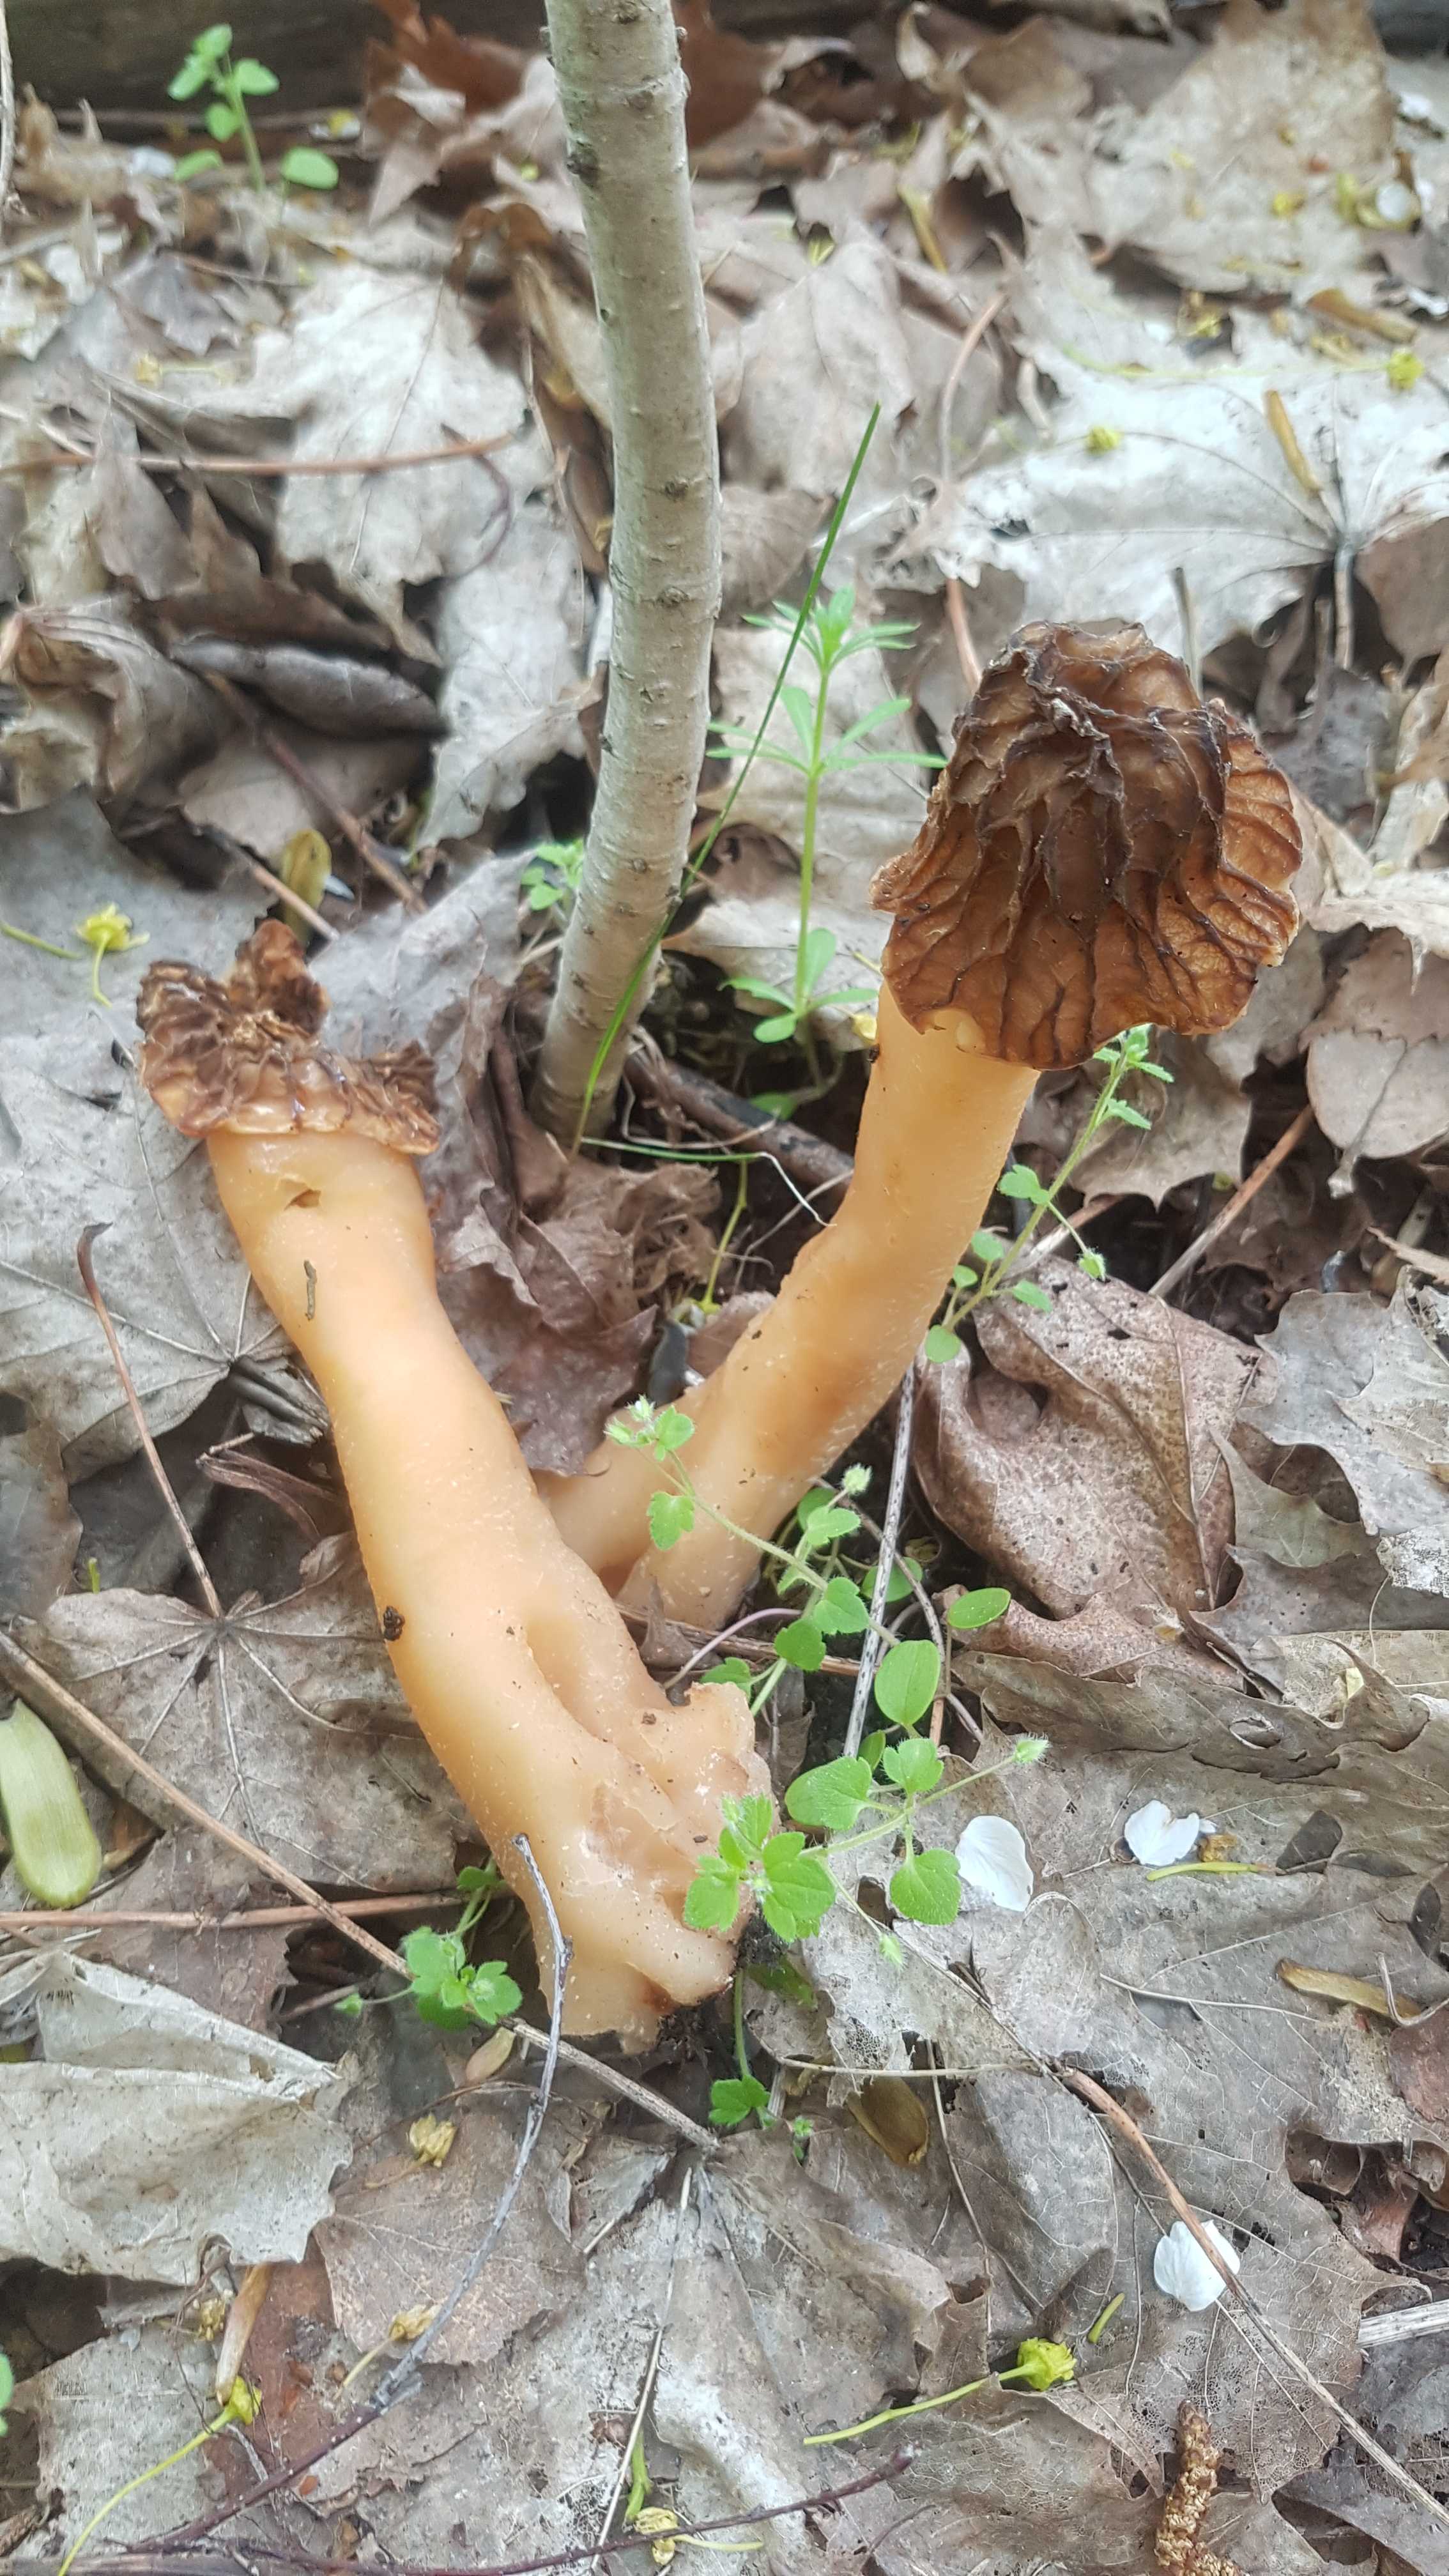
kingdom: Fungi
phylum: Ascomycota
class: Pezizomycetes
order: Pezizales
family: Morchellaceae
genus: Verpa
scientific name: Verpa bohemica
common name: rynket klokkemorkel
